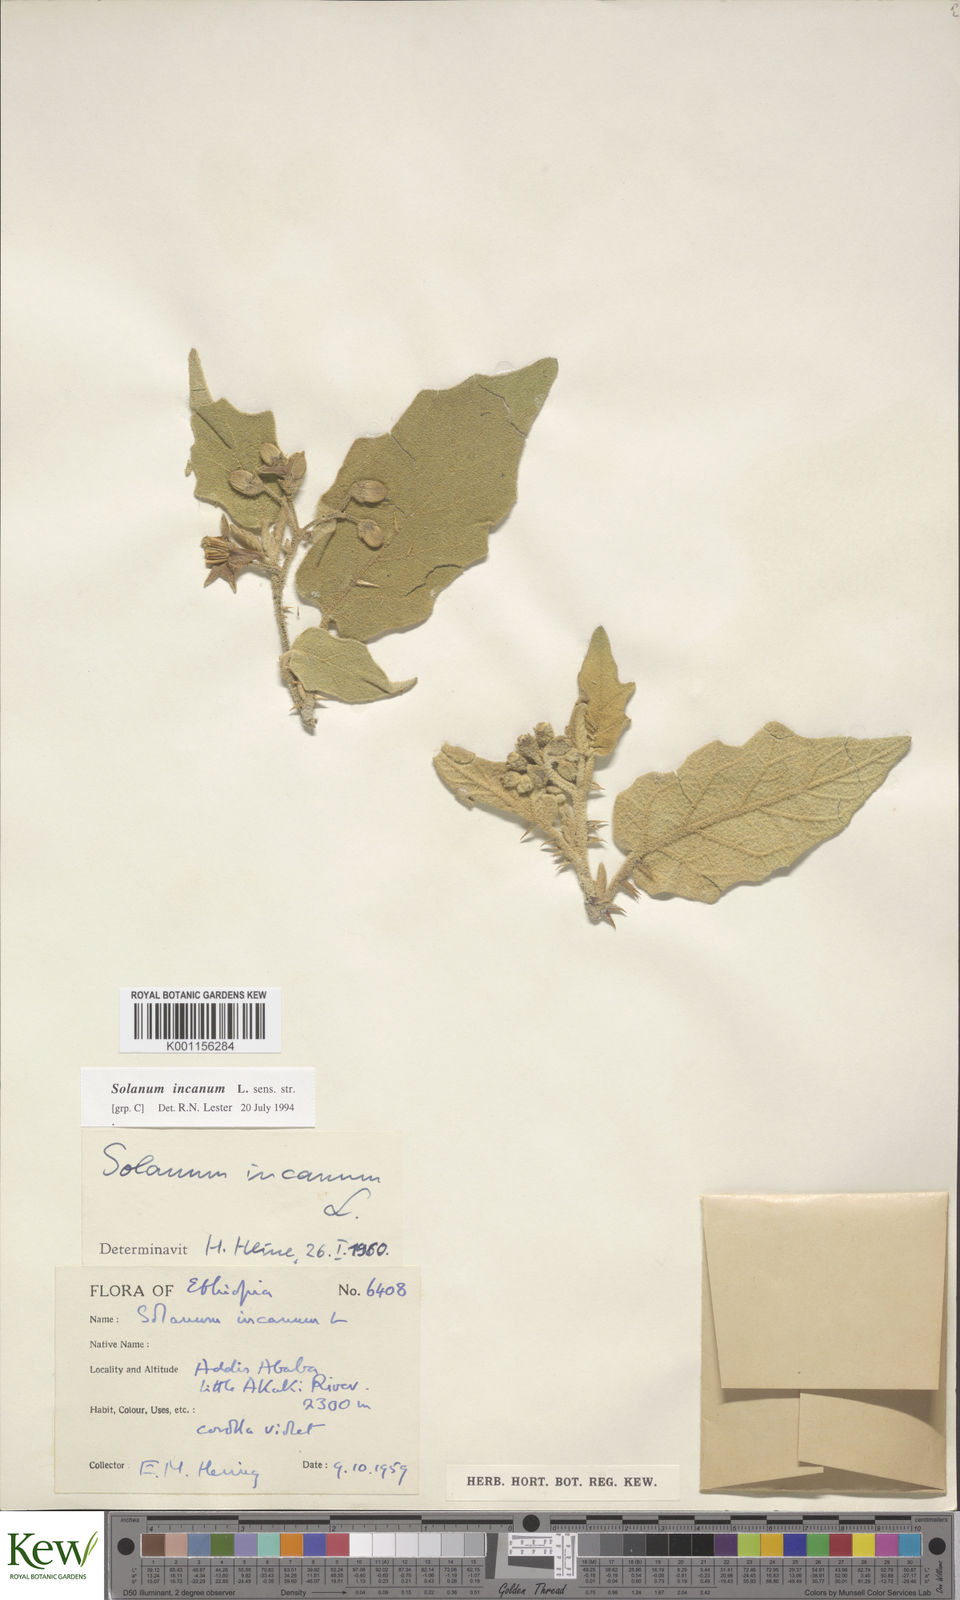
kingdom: Plantae
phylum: Tracheophyta
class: Magnoliopsida
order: Solanales
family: Solanaceae
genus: Solanum
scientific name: Solanum incanum
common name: Bitter apple
